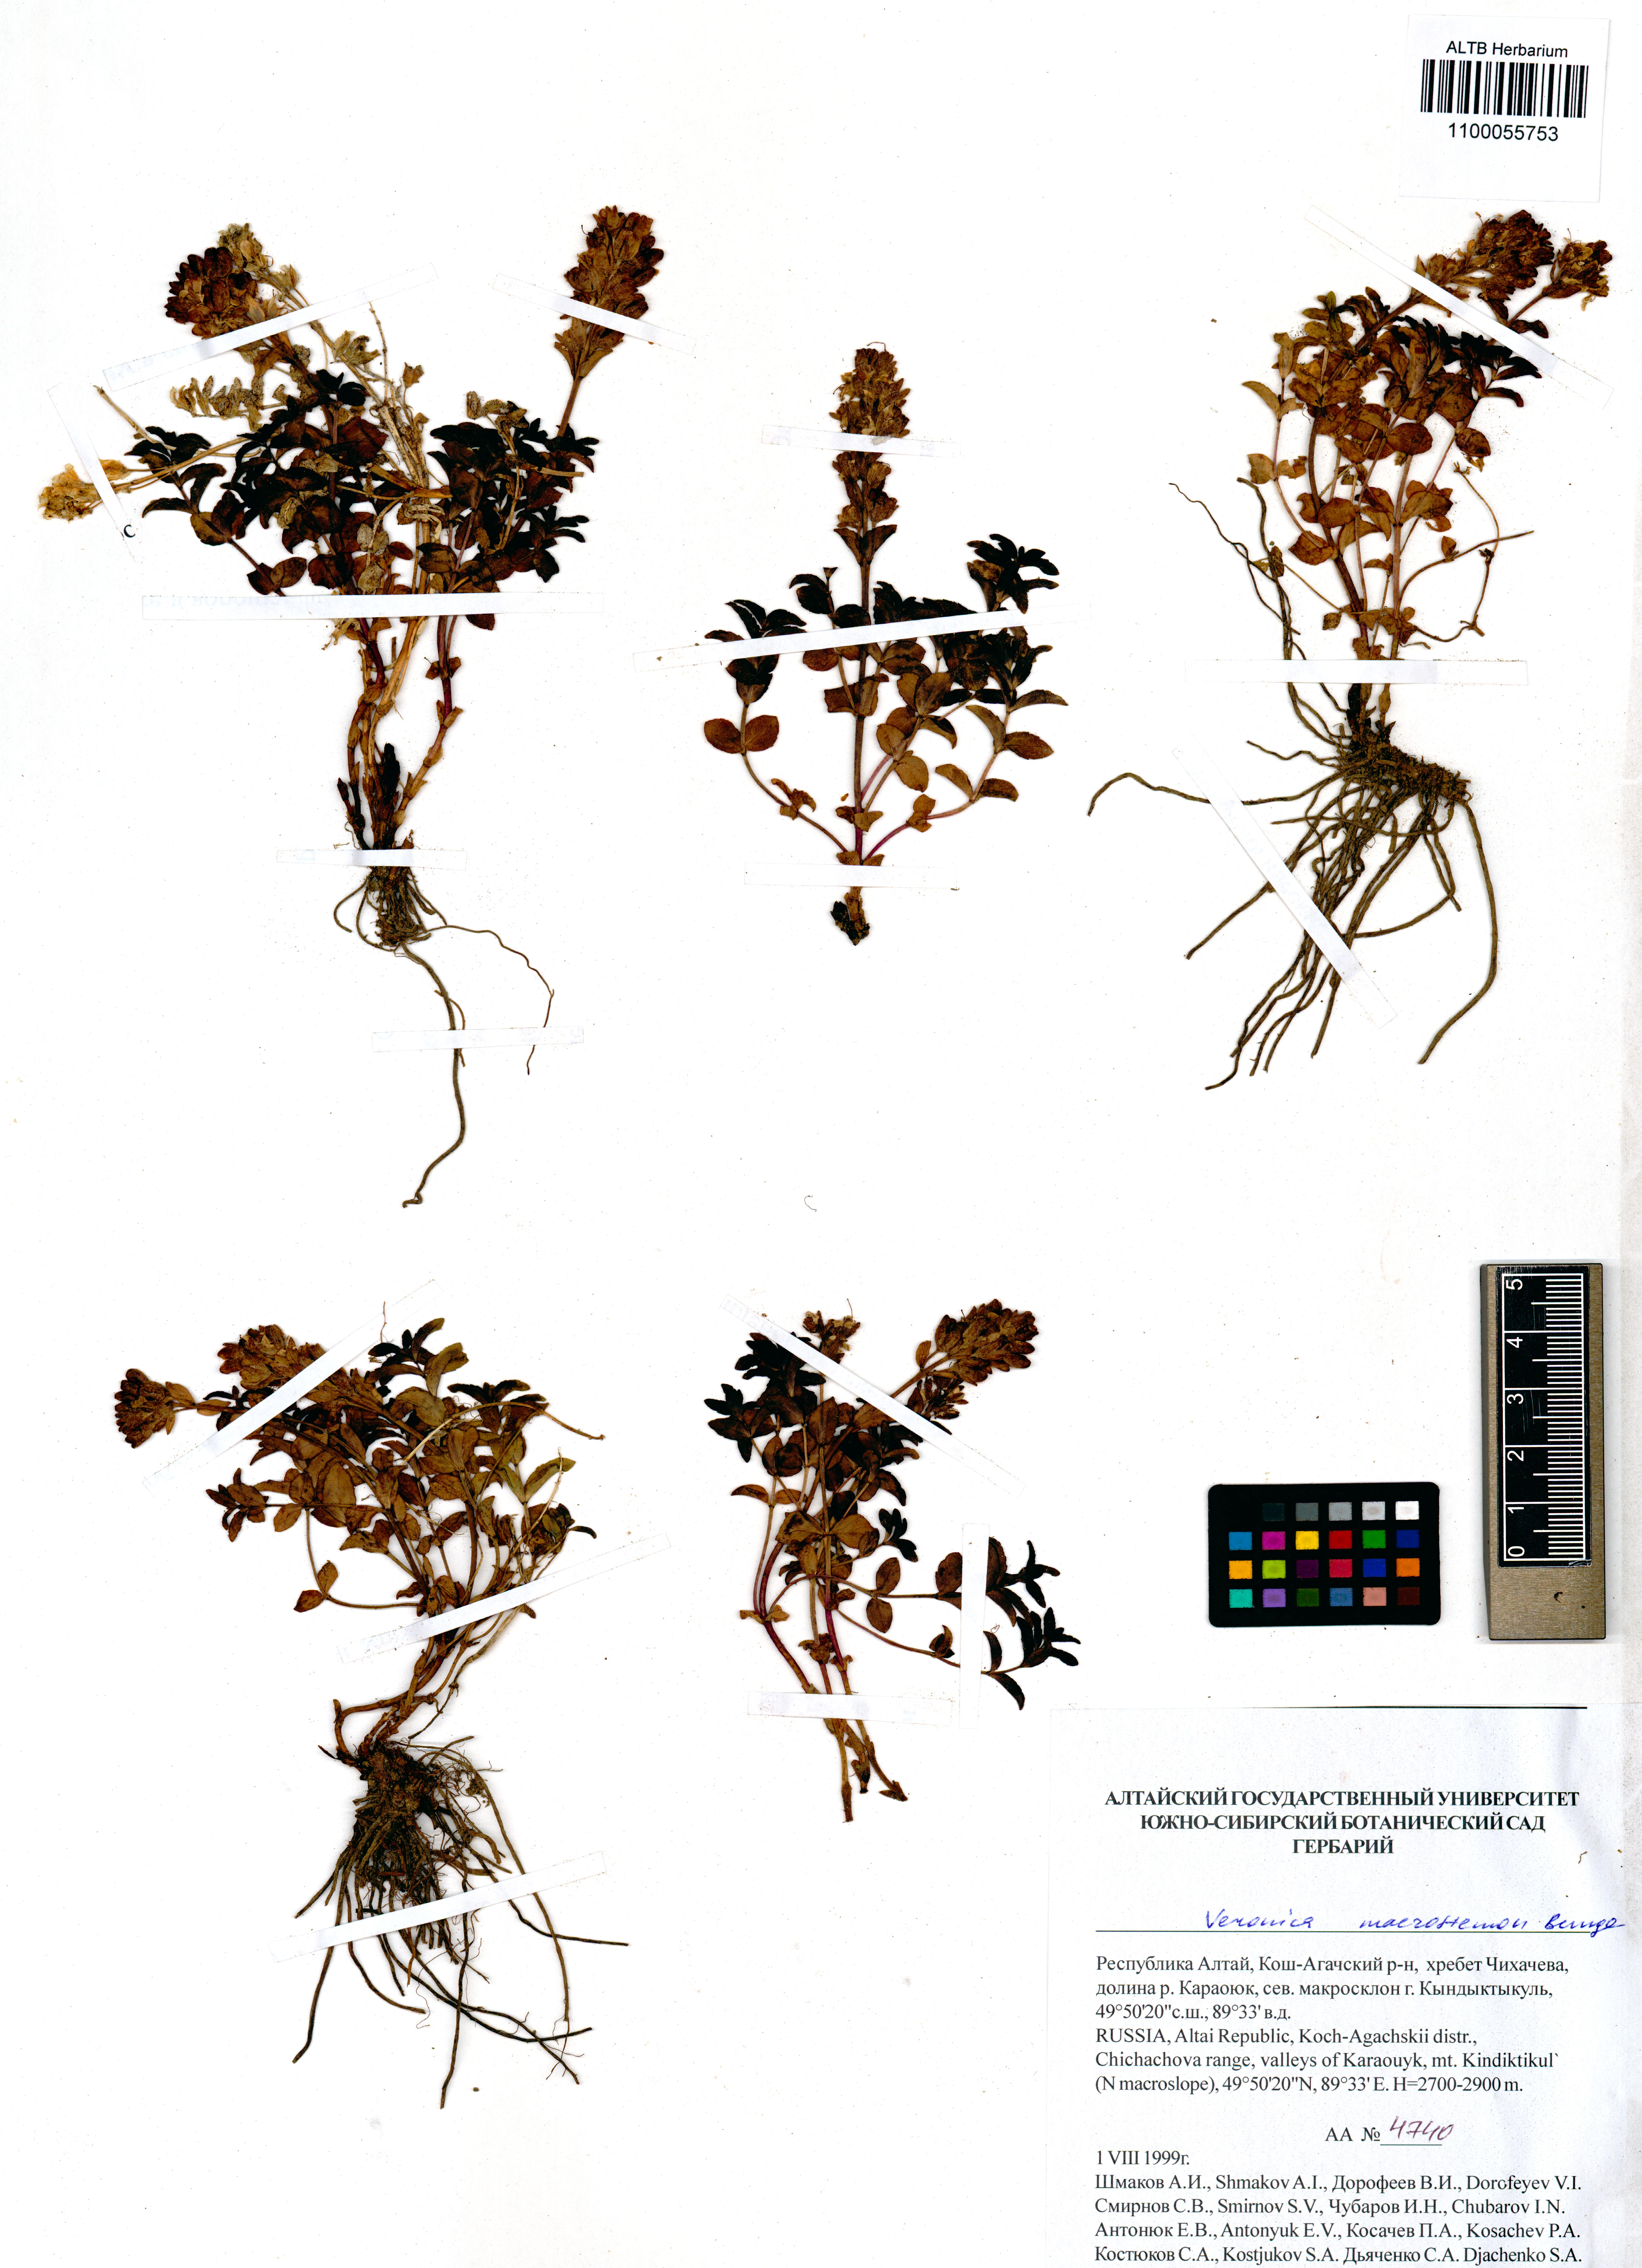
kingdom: Plantae
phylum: Tracheophyta
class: Magnoliopsida
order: Lamiales
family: Plantaginaceae
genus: Veronica
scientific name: Veronica macrostemon
